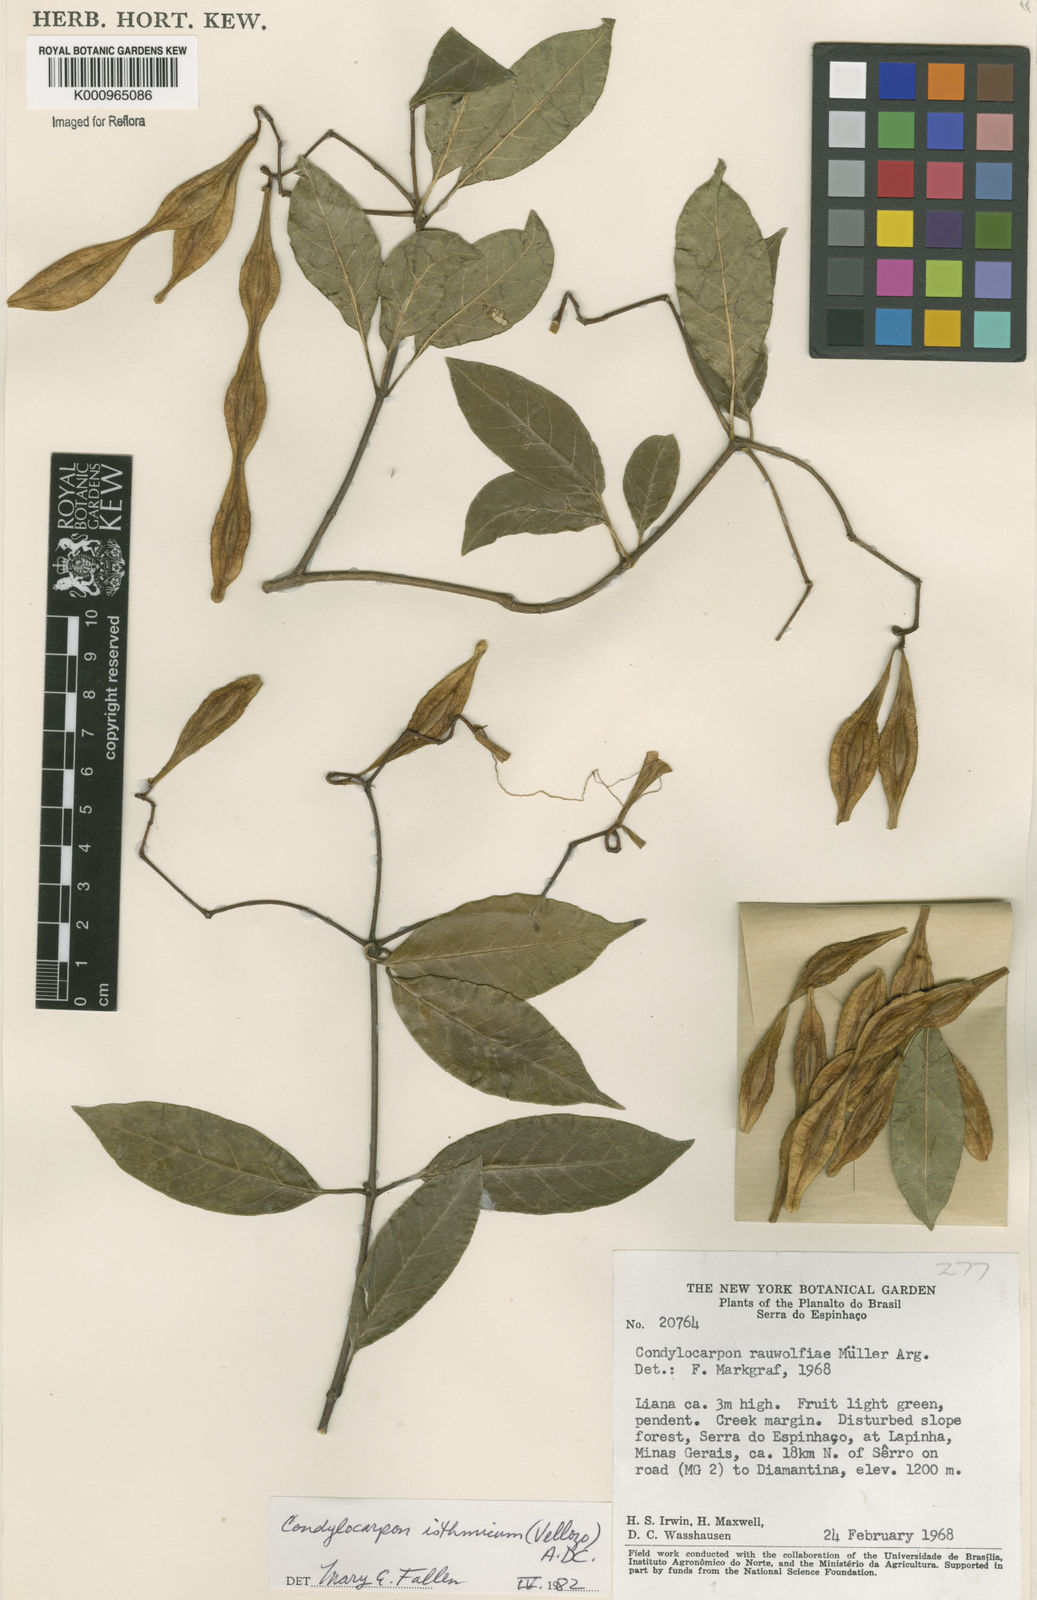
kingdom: Plantae
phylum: Tracheophyta
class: Magnoliopsida
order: Gentianales
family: Apocynaceae
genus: Condylocarpon
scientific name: Condylocarpon isthmicum
